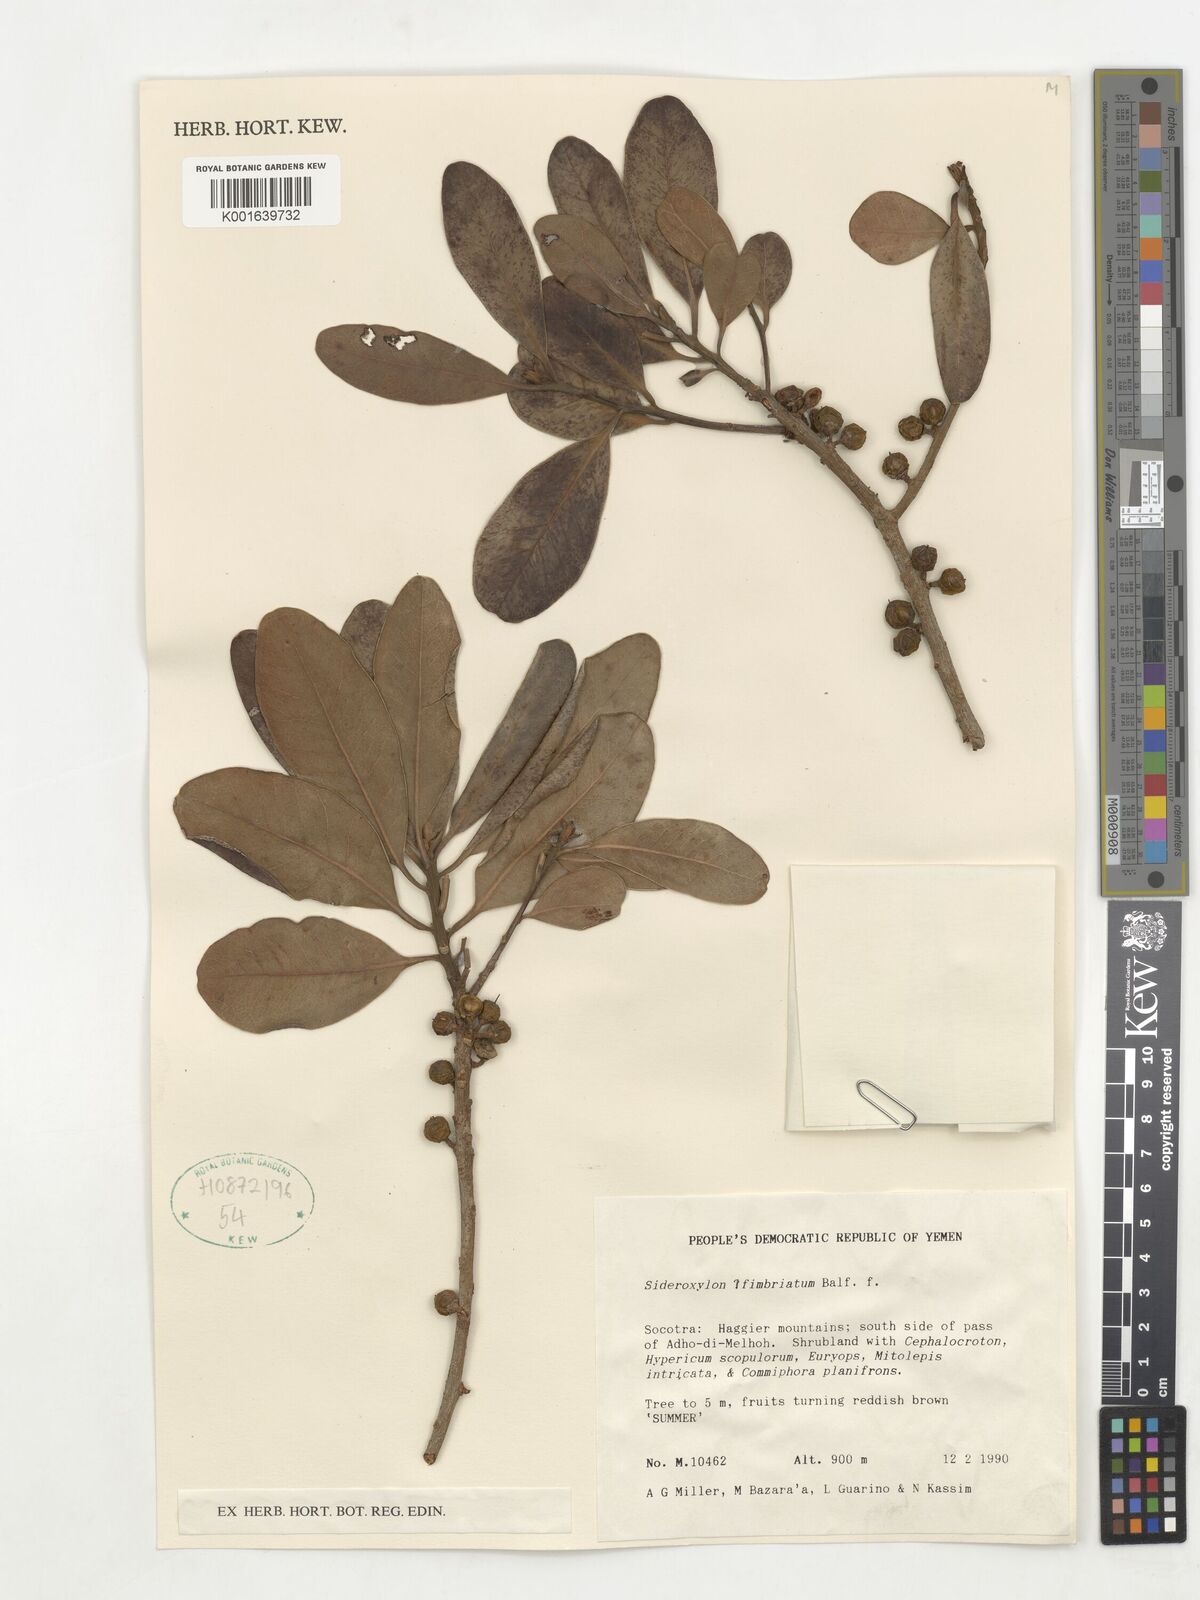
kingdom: Plantae
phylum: Tracheophyta
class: Magnoliopsida
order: Ericales
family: Sapotaceae
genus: Sideroxylon
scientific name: Sideroxylon fimbriatum
